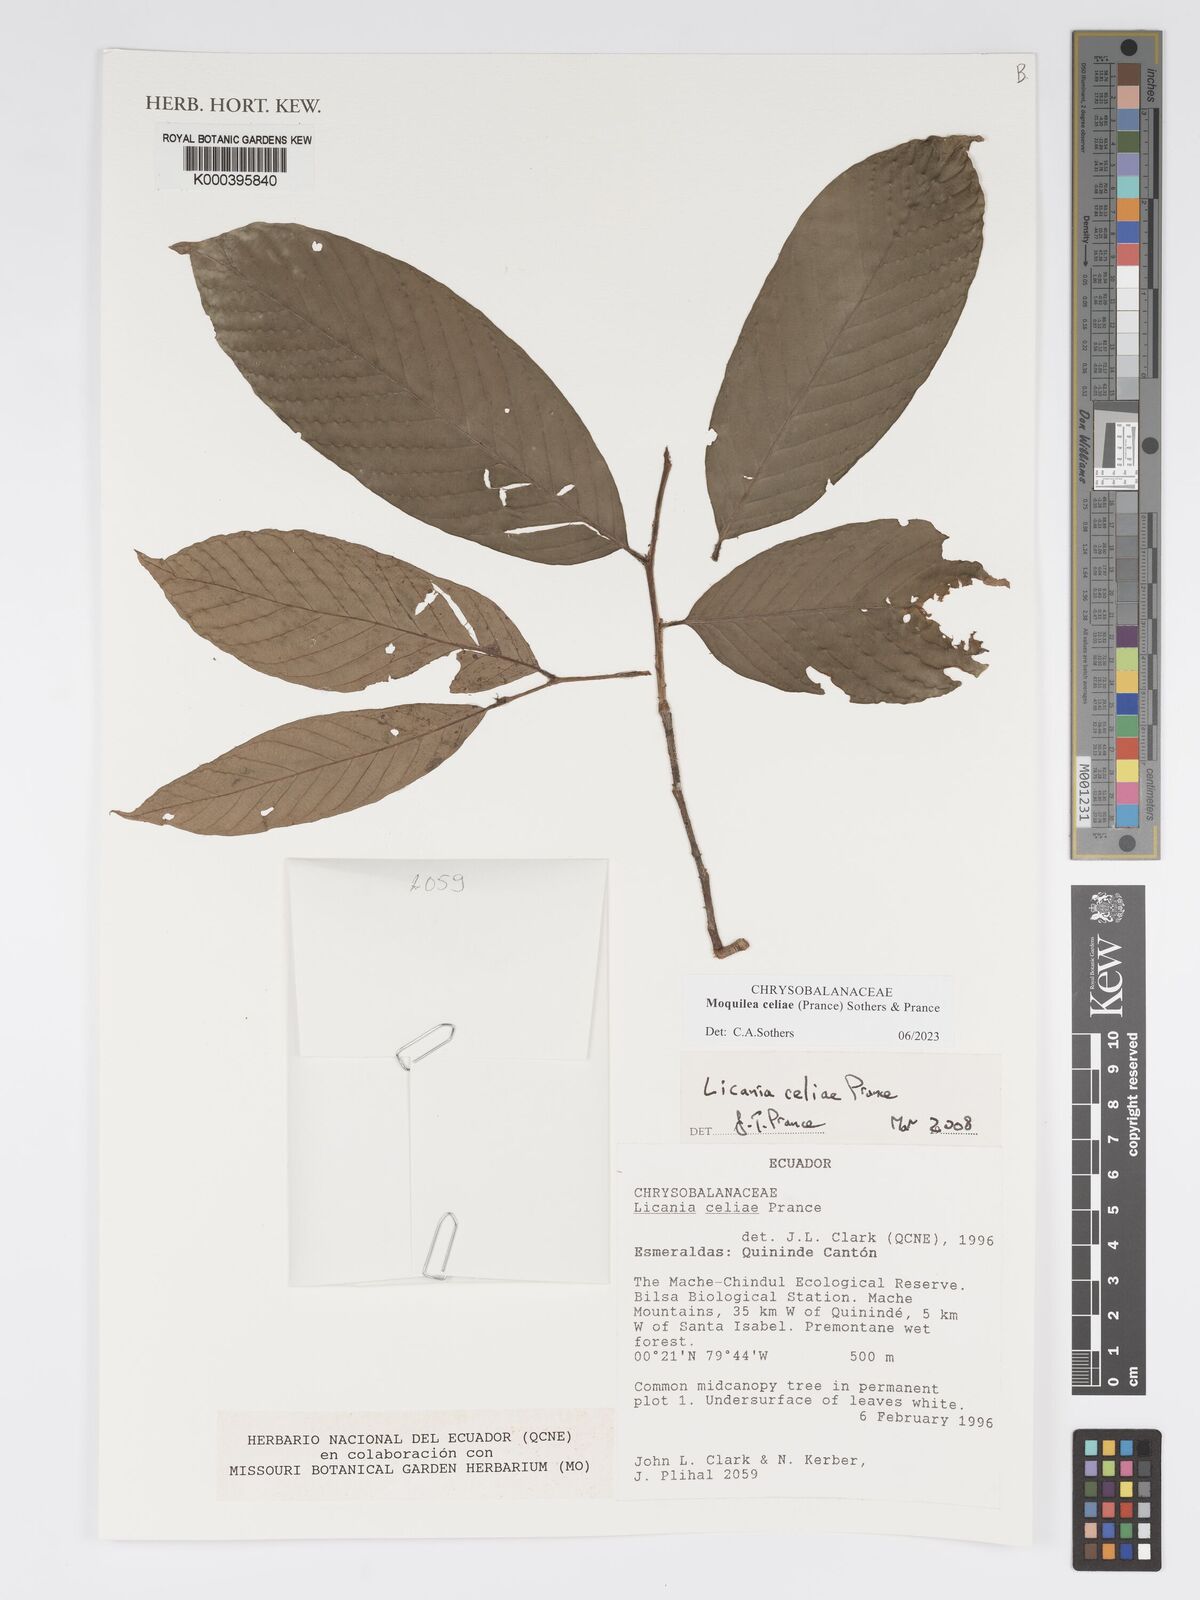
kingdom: Plantae
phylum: Tracheophyta
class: Magnoliopsida
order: Malpighiales
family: Chrysobalanaceae
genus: Moquilea
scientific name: Moquilea celiae
